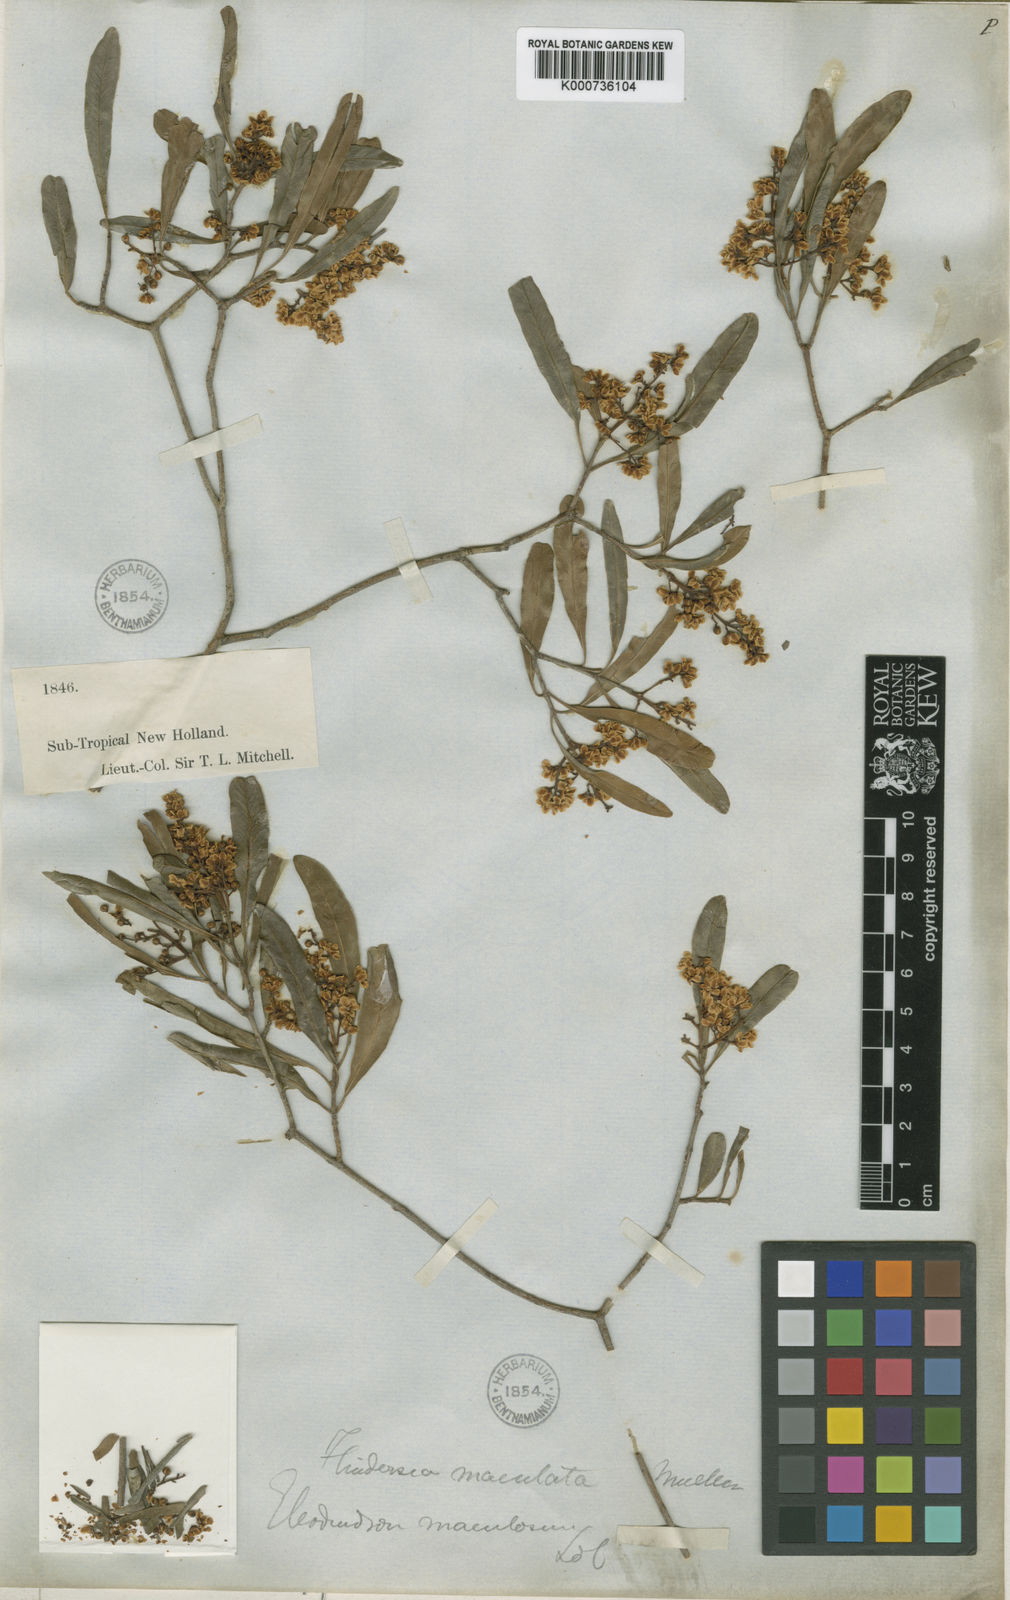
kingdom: Plantae
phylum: Tracheophyta
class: Magnoliopsida
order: Sapindales
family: Rutaceae
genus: Flindersia
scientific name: Flindersia maculosa
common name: Leopardtree
